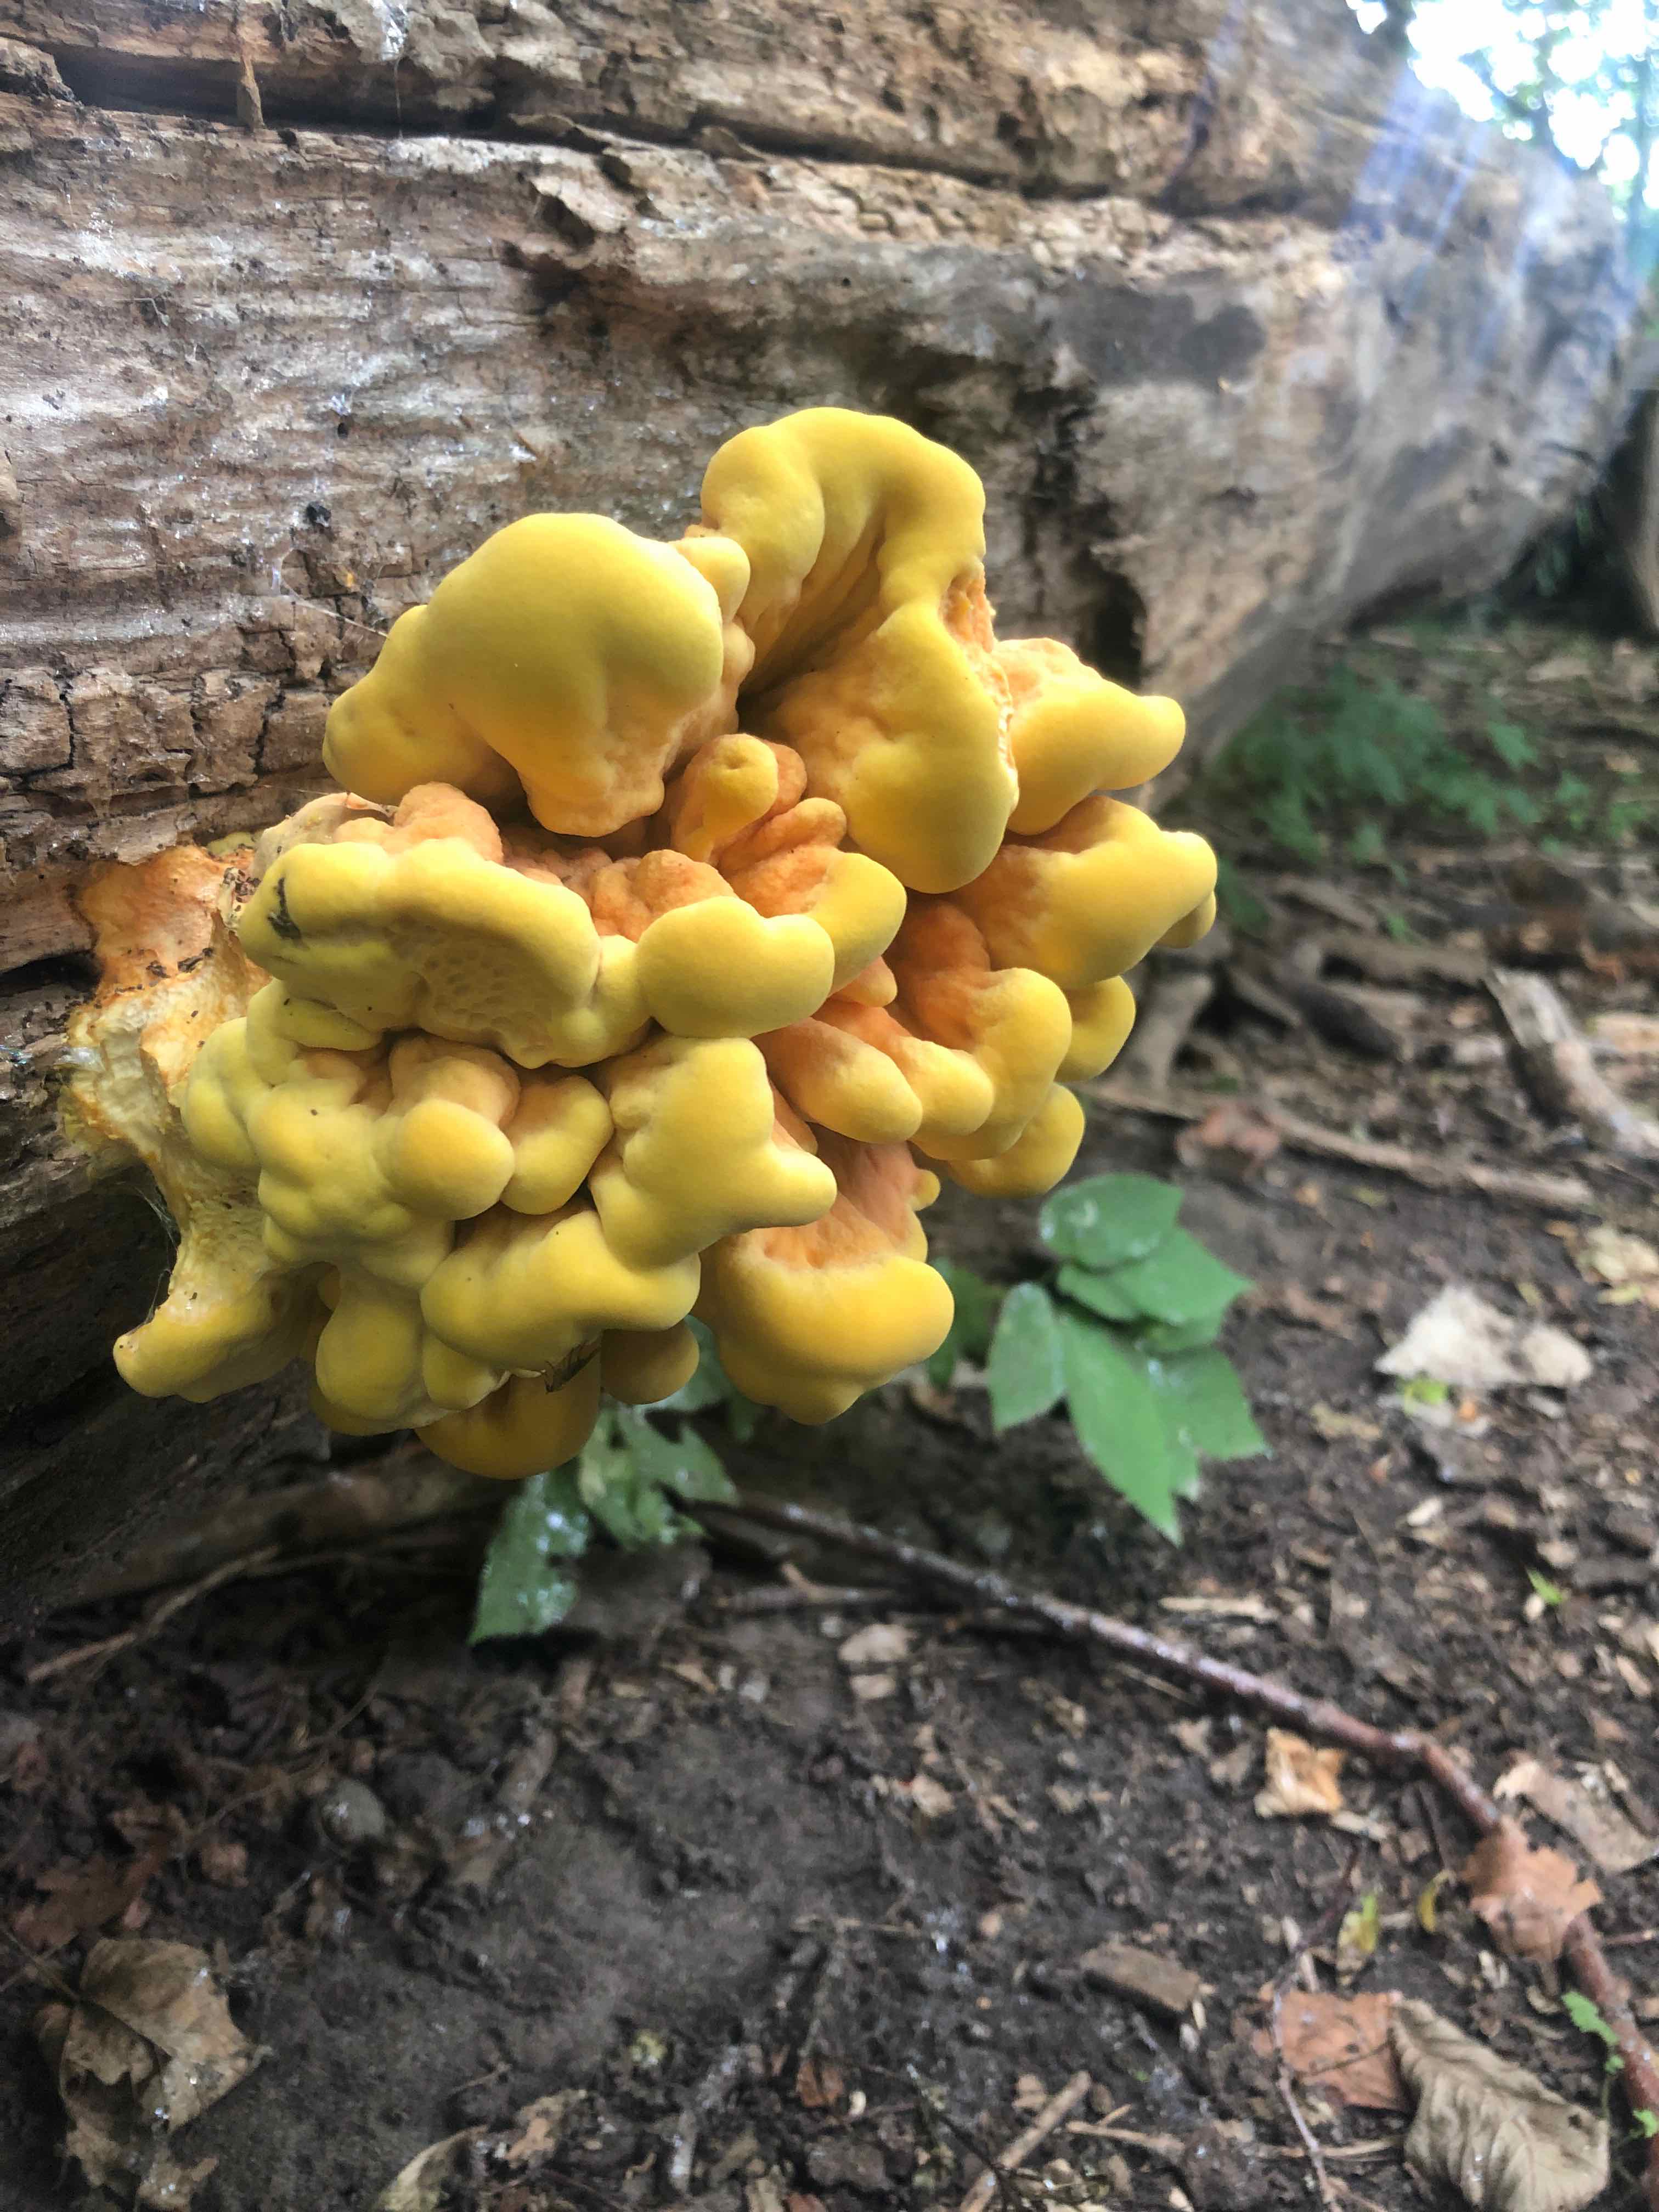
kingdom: Fungi
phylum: Basidiomycota
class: Agaricomycetes
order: Polyporales
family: Laetiporaceae
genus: Laetiporus
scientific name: Laetiporus sulphureus
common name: svovlporesvamp
